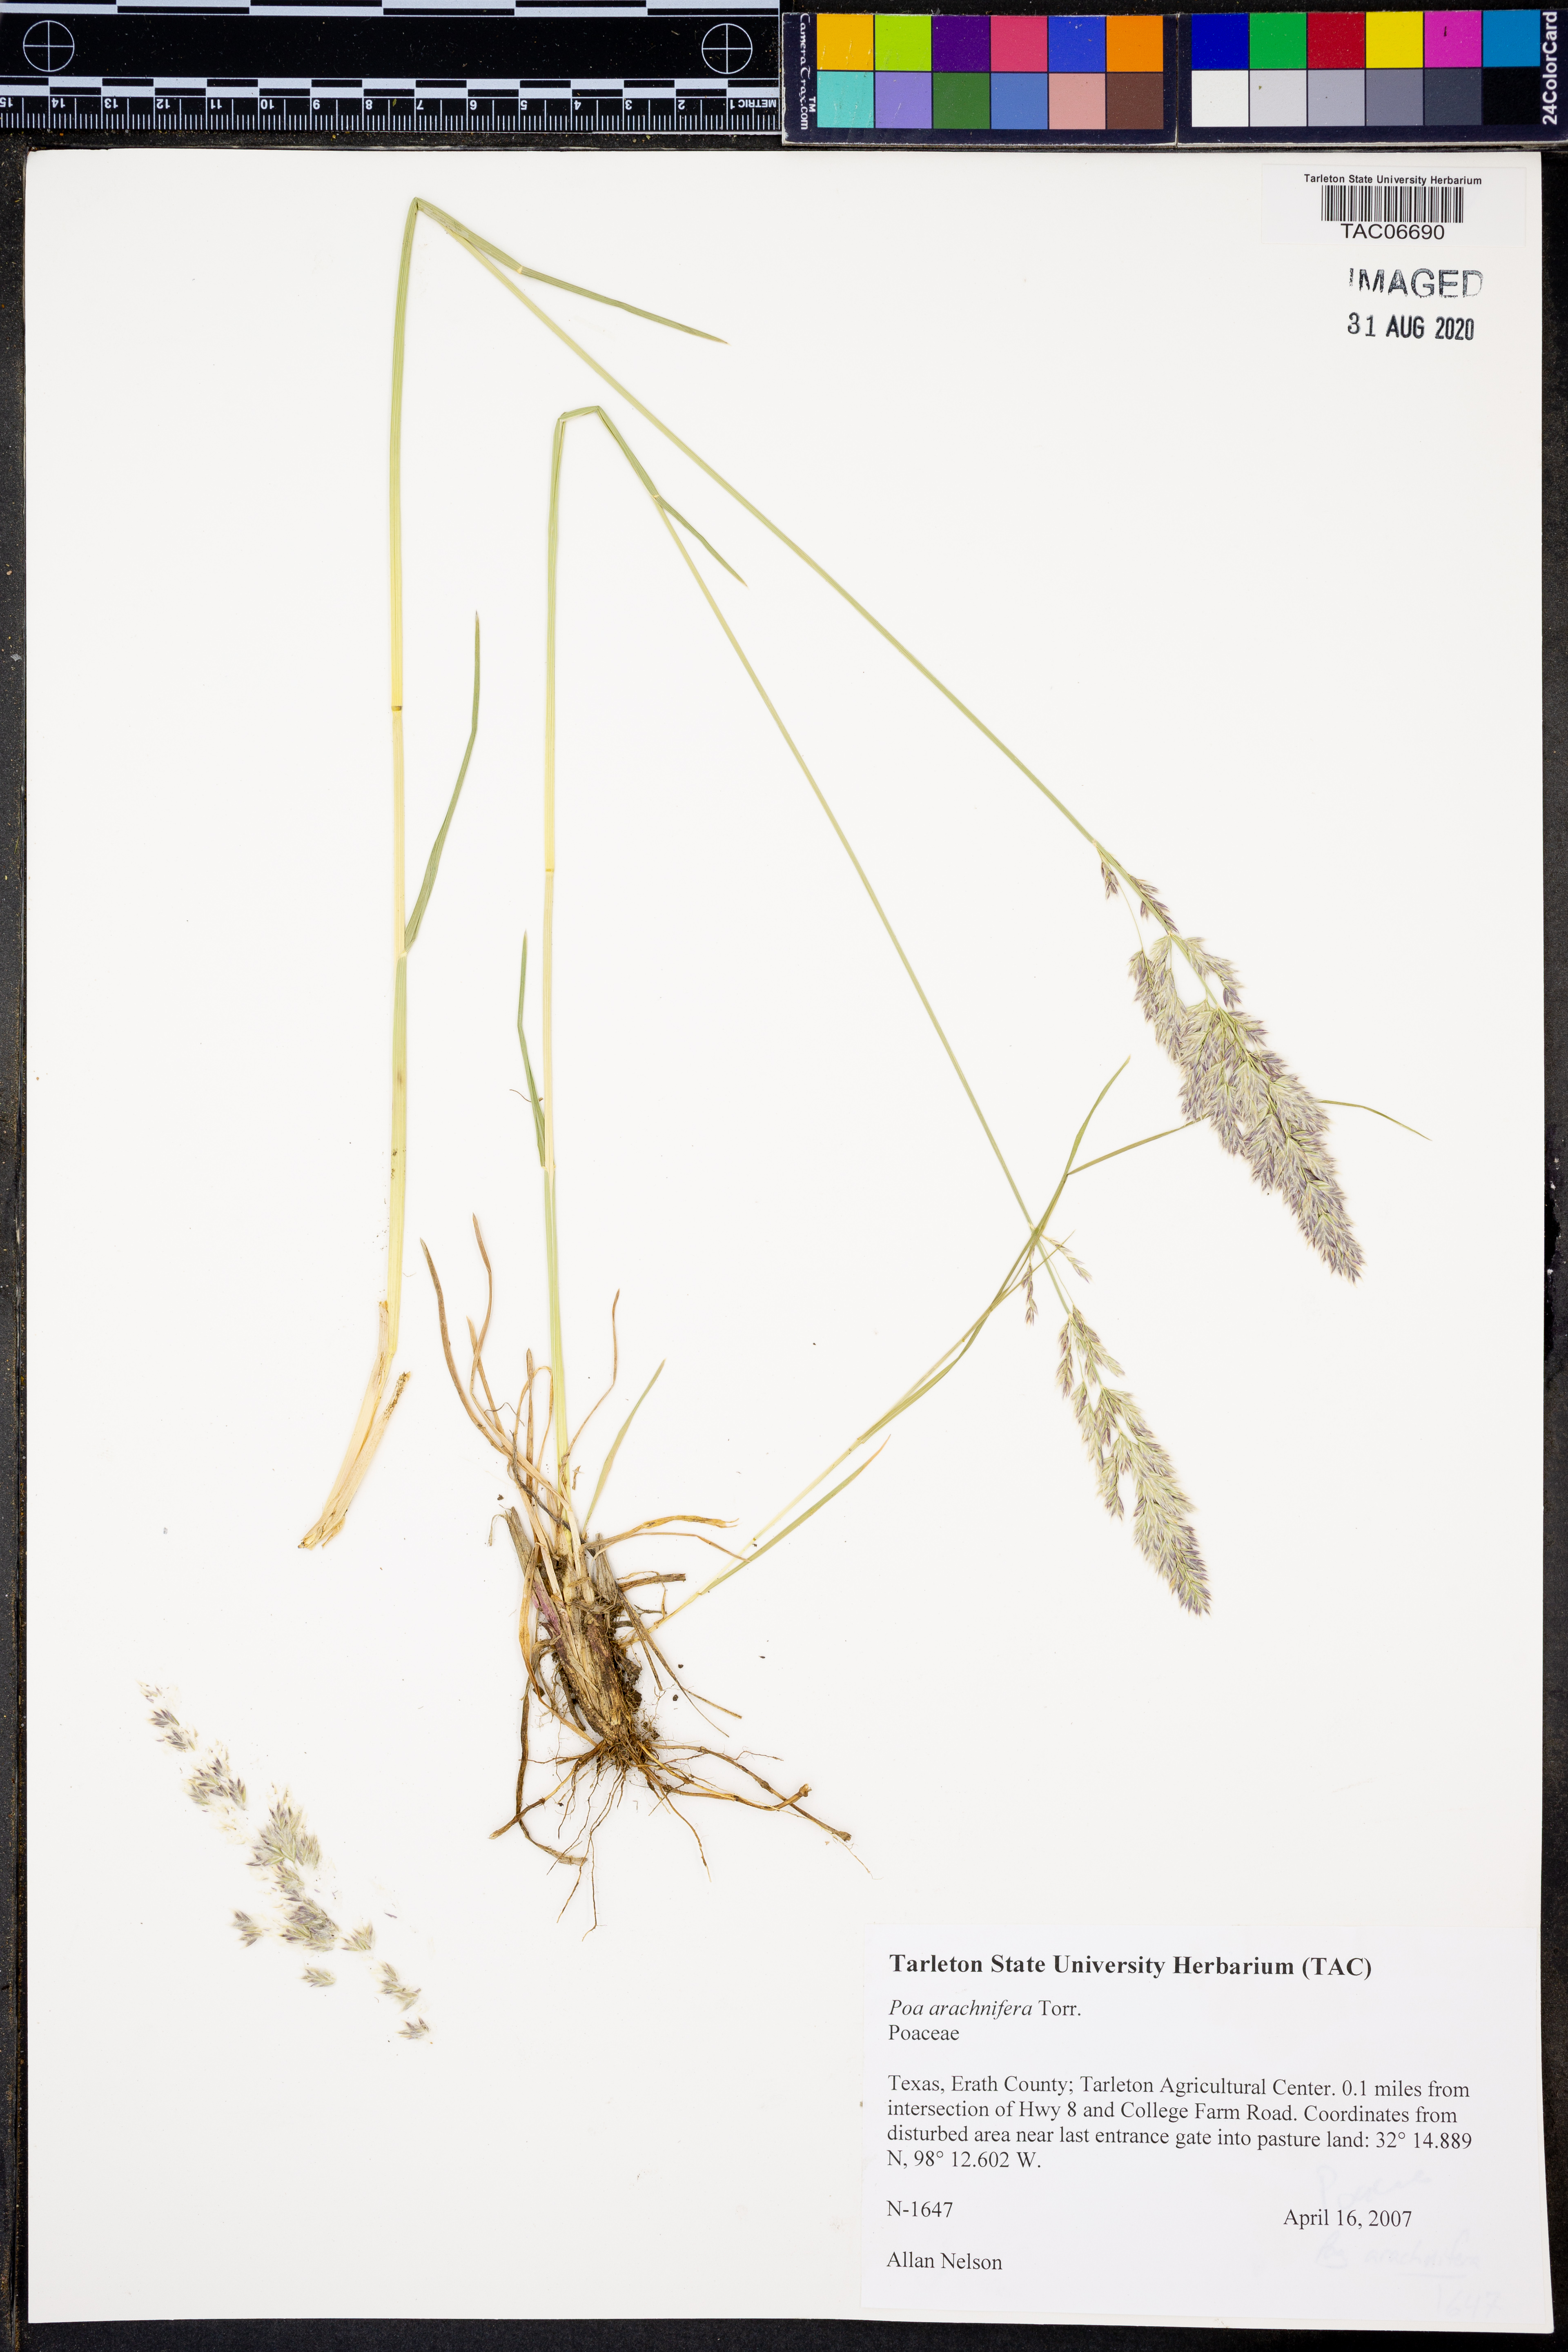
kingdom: Plantae
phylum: Tracheophyta
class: Liliopsida
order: Poales
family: Poaceae
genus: Poa
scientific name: Poa arachnifera
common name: Texas bluegrass
